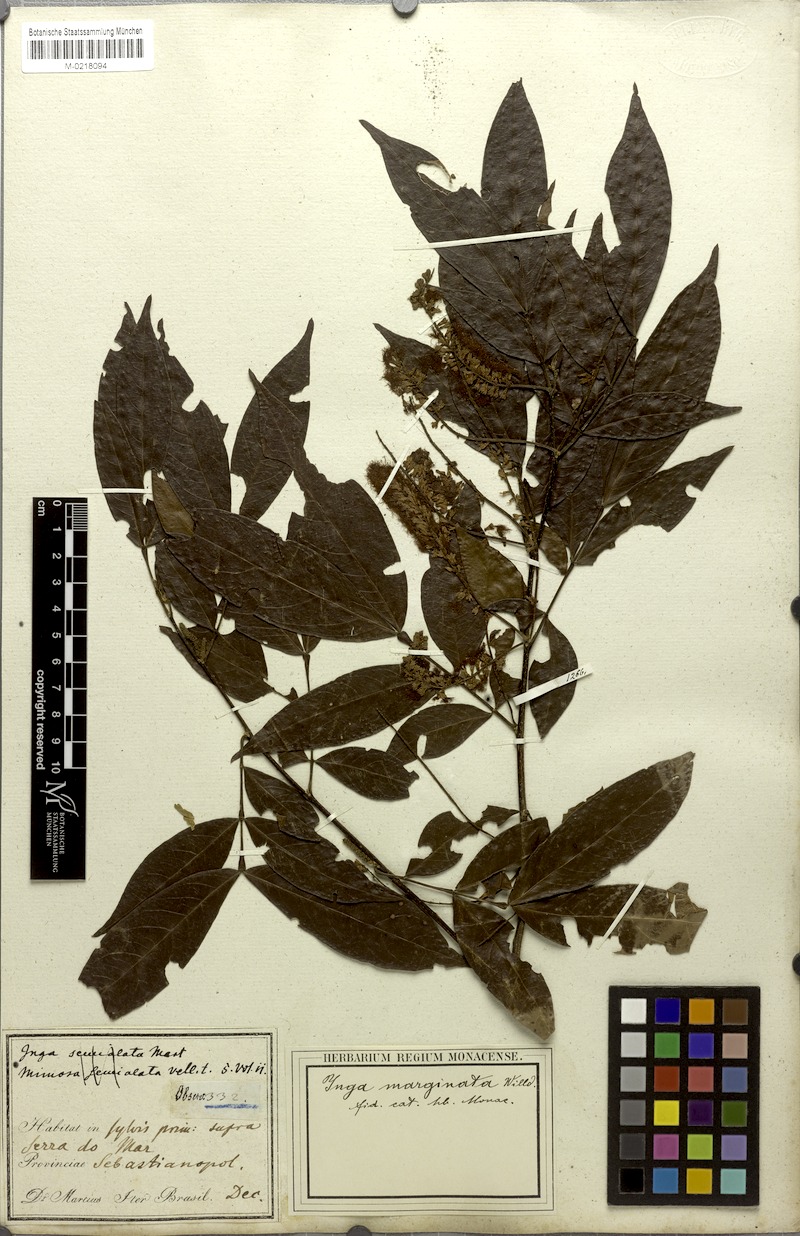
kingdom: Plantae
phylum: Tracheophyta
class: Magnoliopsida
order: Fabales
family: Fabaceae
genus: Inga
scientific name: Inga marginata
